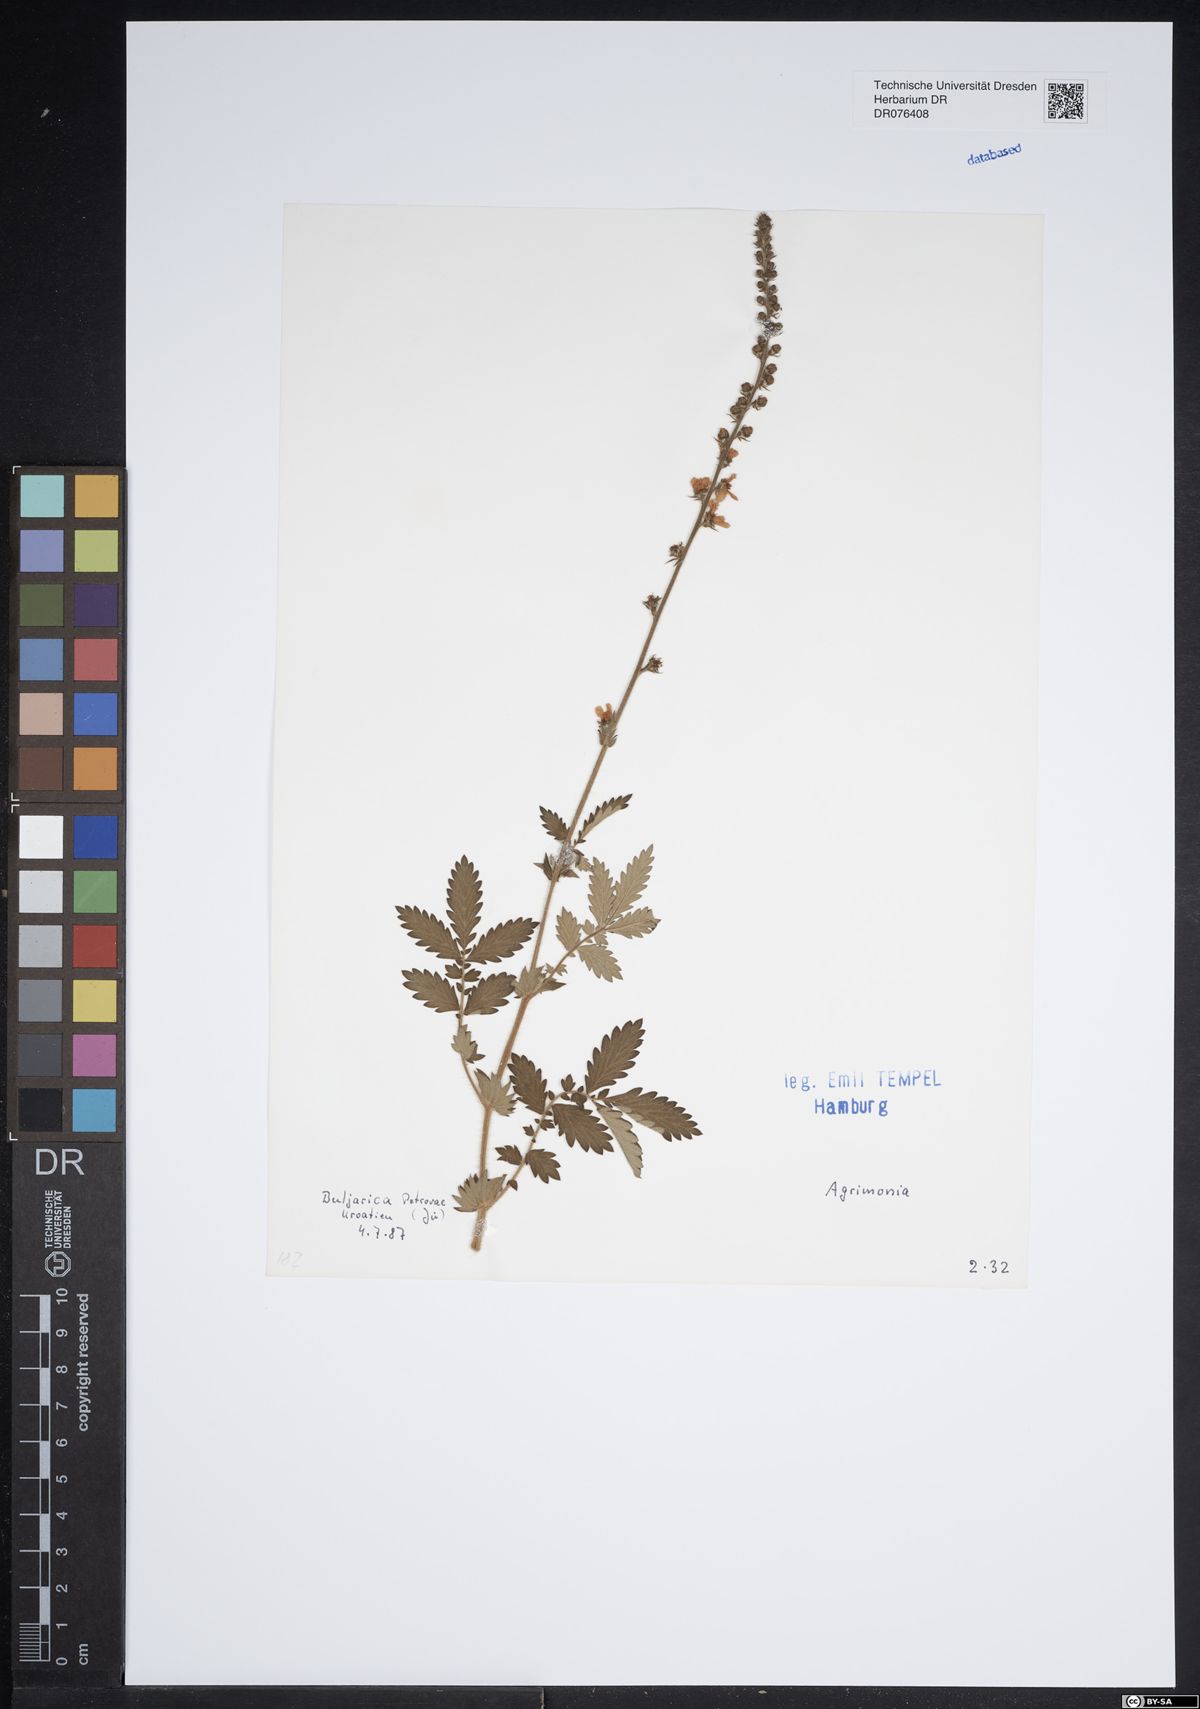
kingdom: Plantae
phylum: Tracheophyta
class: Magnoliopsida
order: Rosales
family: Rosaceae
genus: Agrimonia
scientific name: Agrimonia
